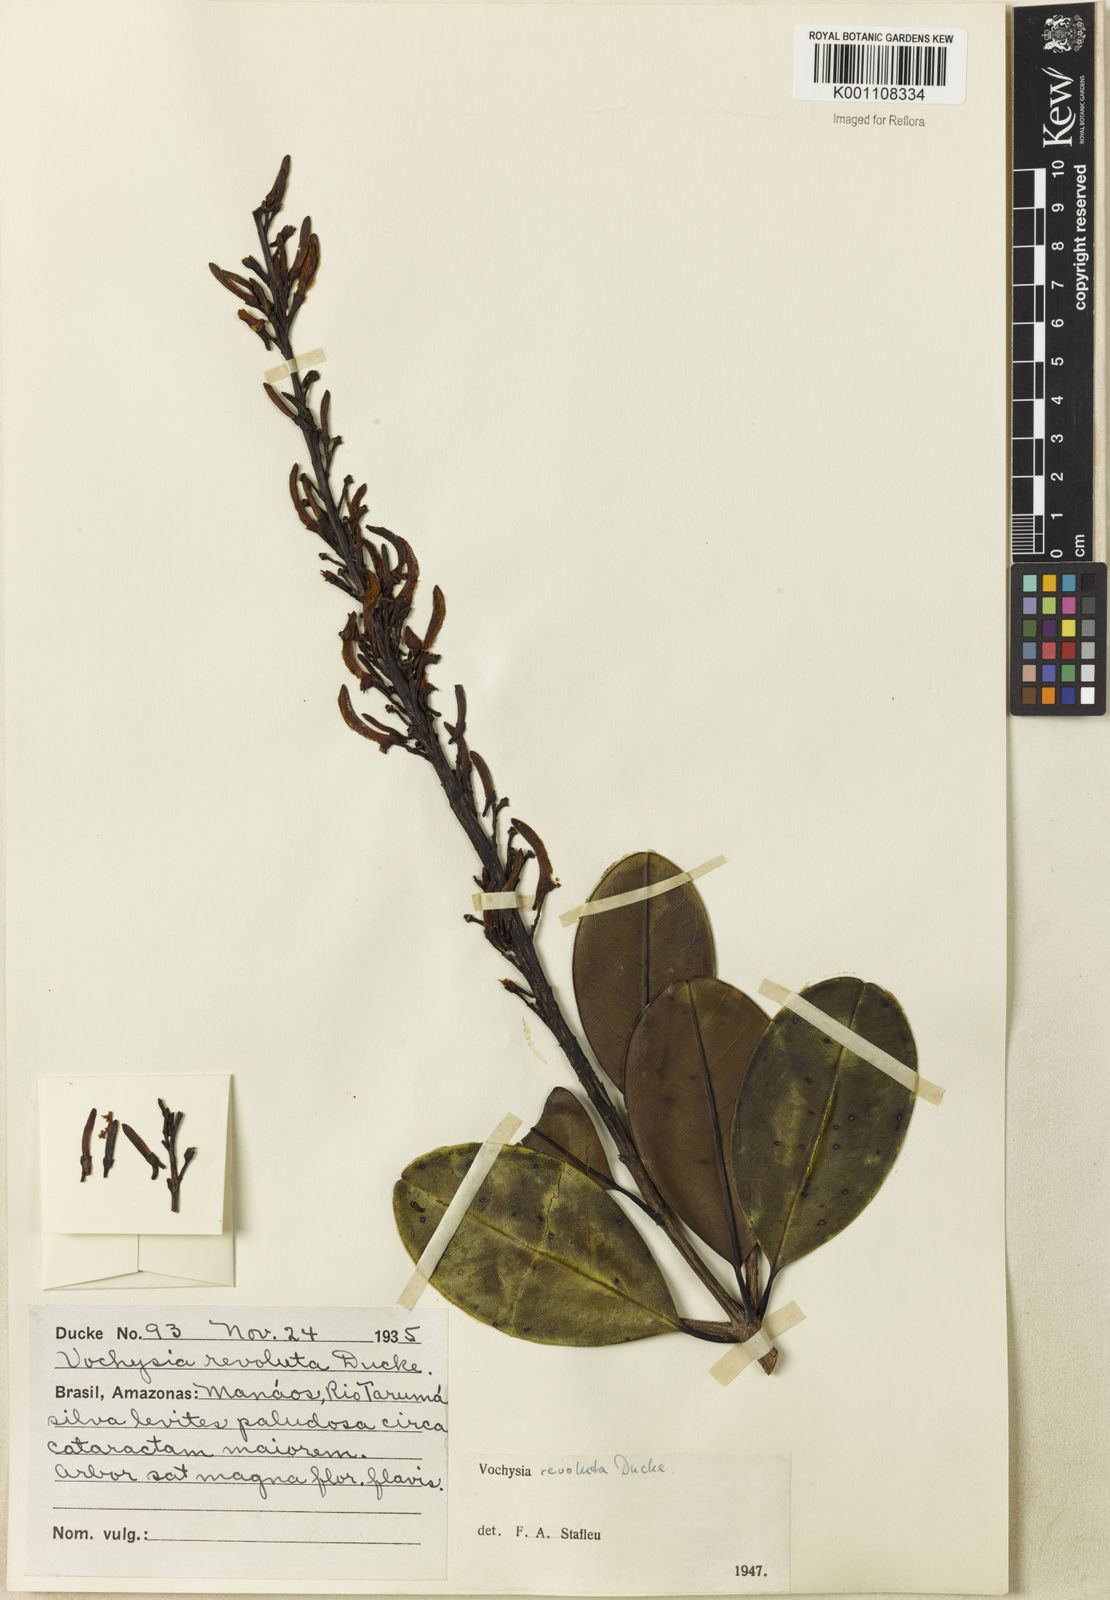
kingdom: Plantae
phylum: Tracheophyta
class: Magnoliopsida
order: Myrtales
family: Vochysiaceae
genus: Vochysia
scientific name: Vochysia revoluta
